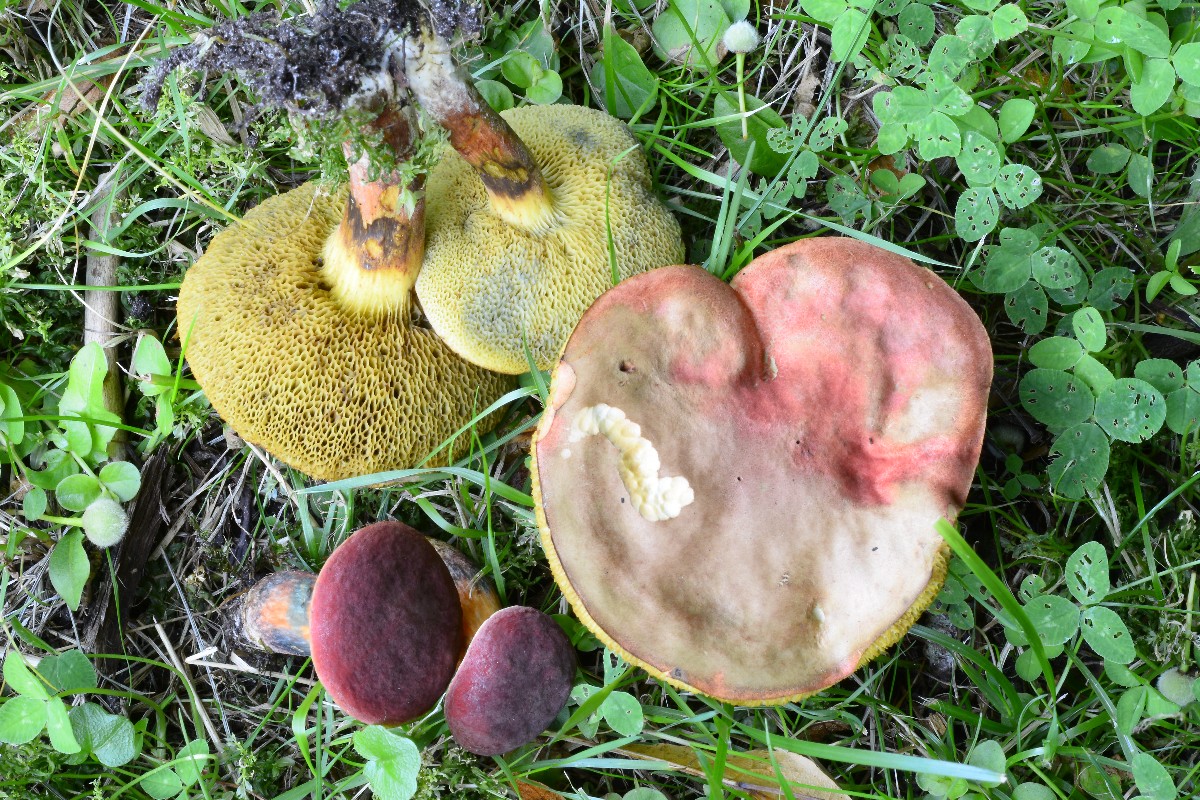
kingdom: Fungi
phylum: Basidiomycota
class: Agaricomycetes
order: Boletales
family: Boletaceae
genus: Hortiboletus
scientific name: Hortiboletus rubellus
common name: blodrød rørhat
